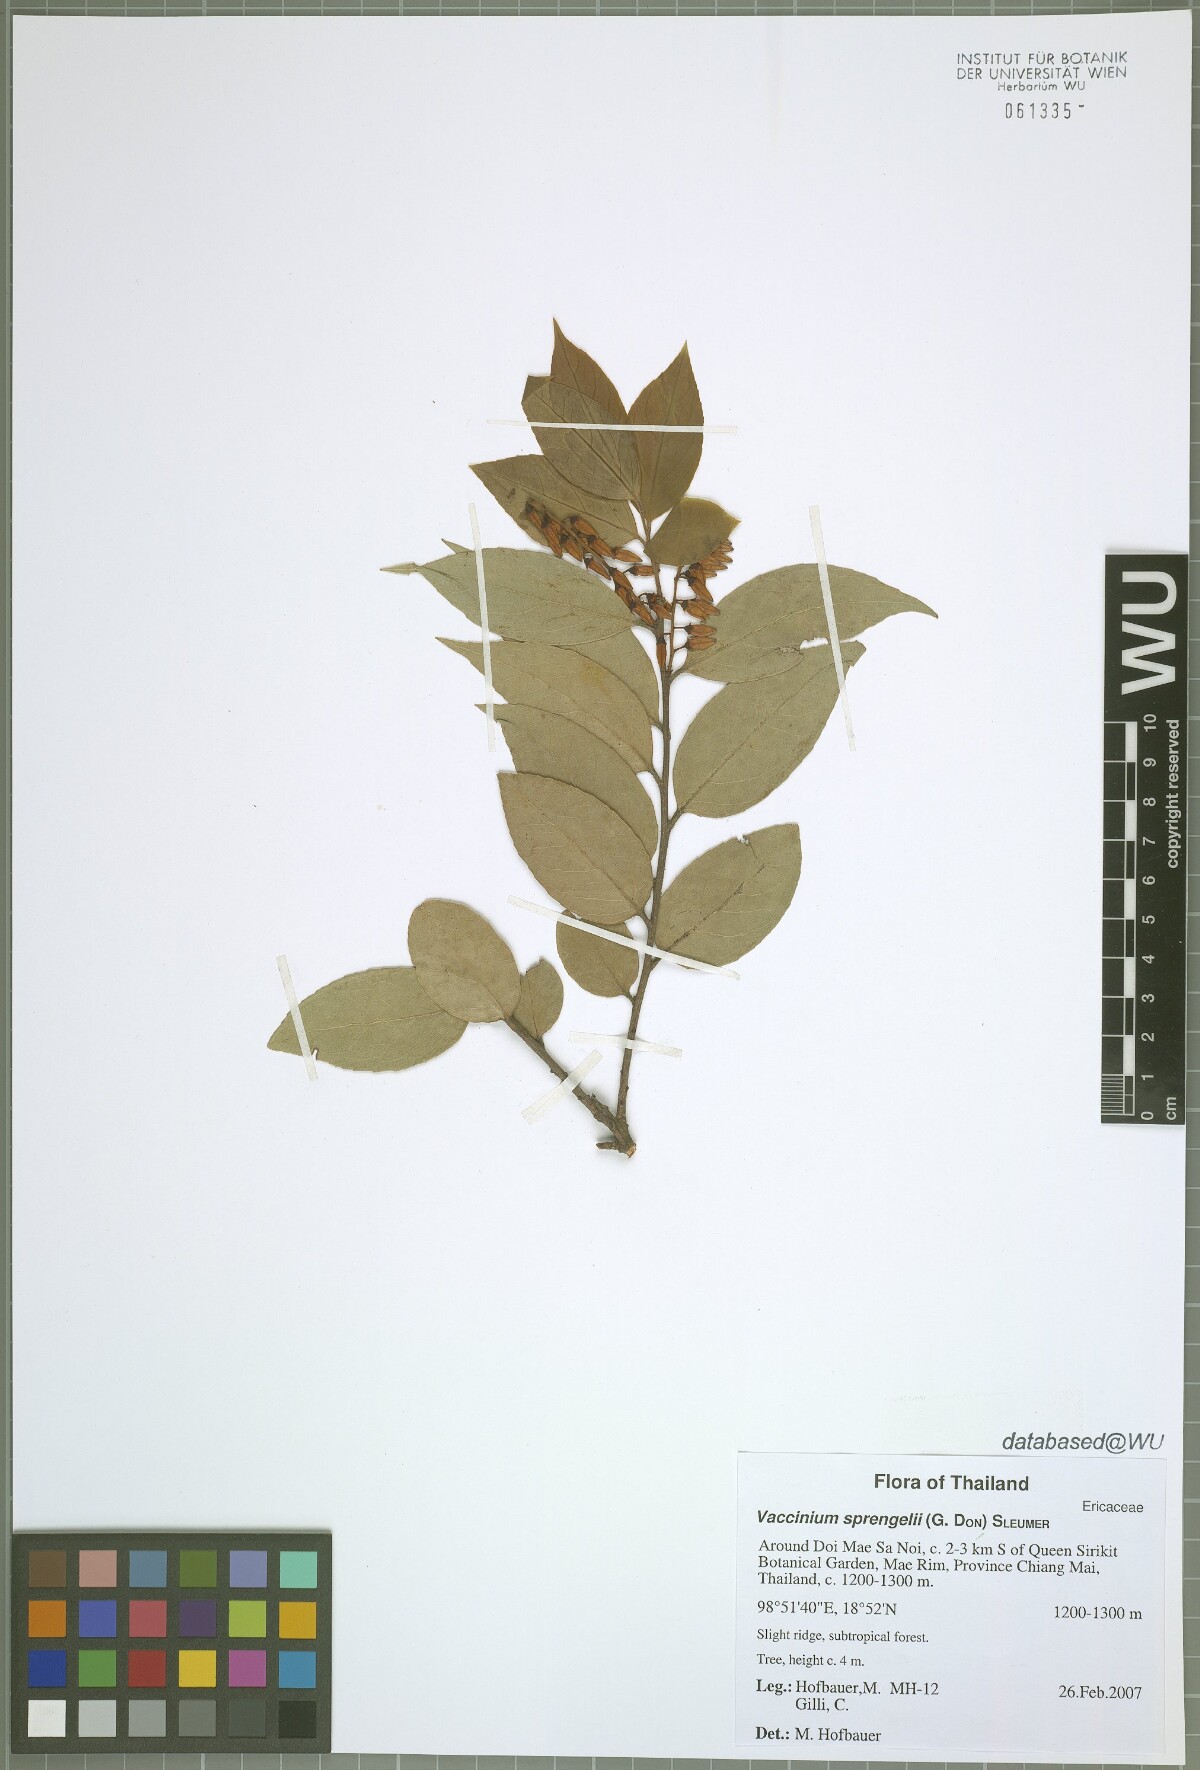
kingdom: Plantae
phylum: Tracheophyta
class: Magnoliopsida
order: Ericales
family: Ericaceae
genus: Vaccinium
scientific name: Vaccinium sprengelii
